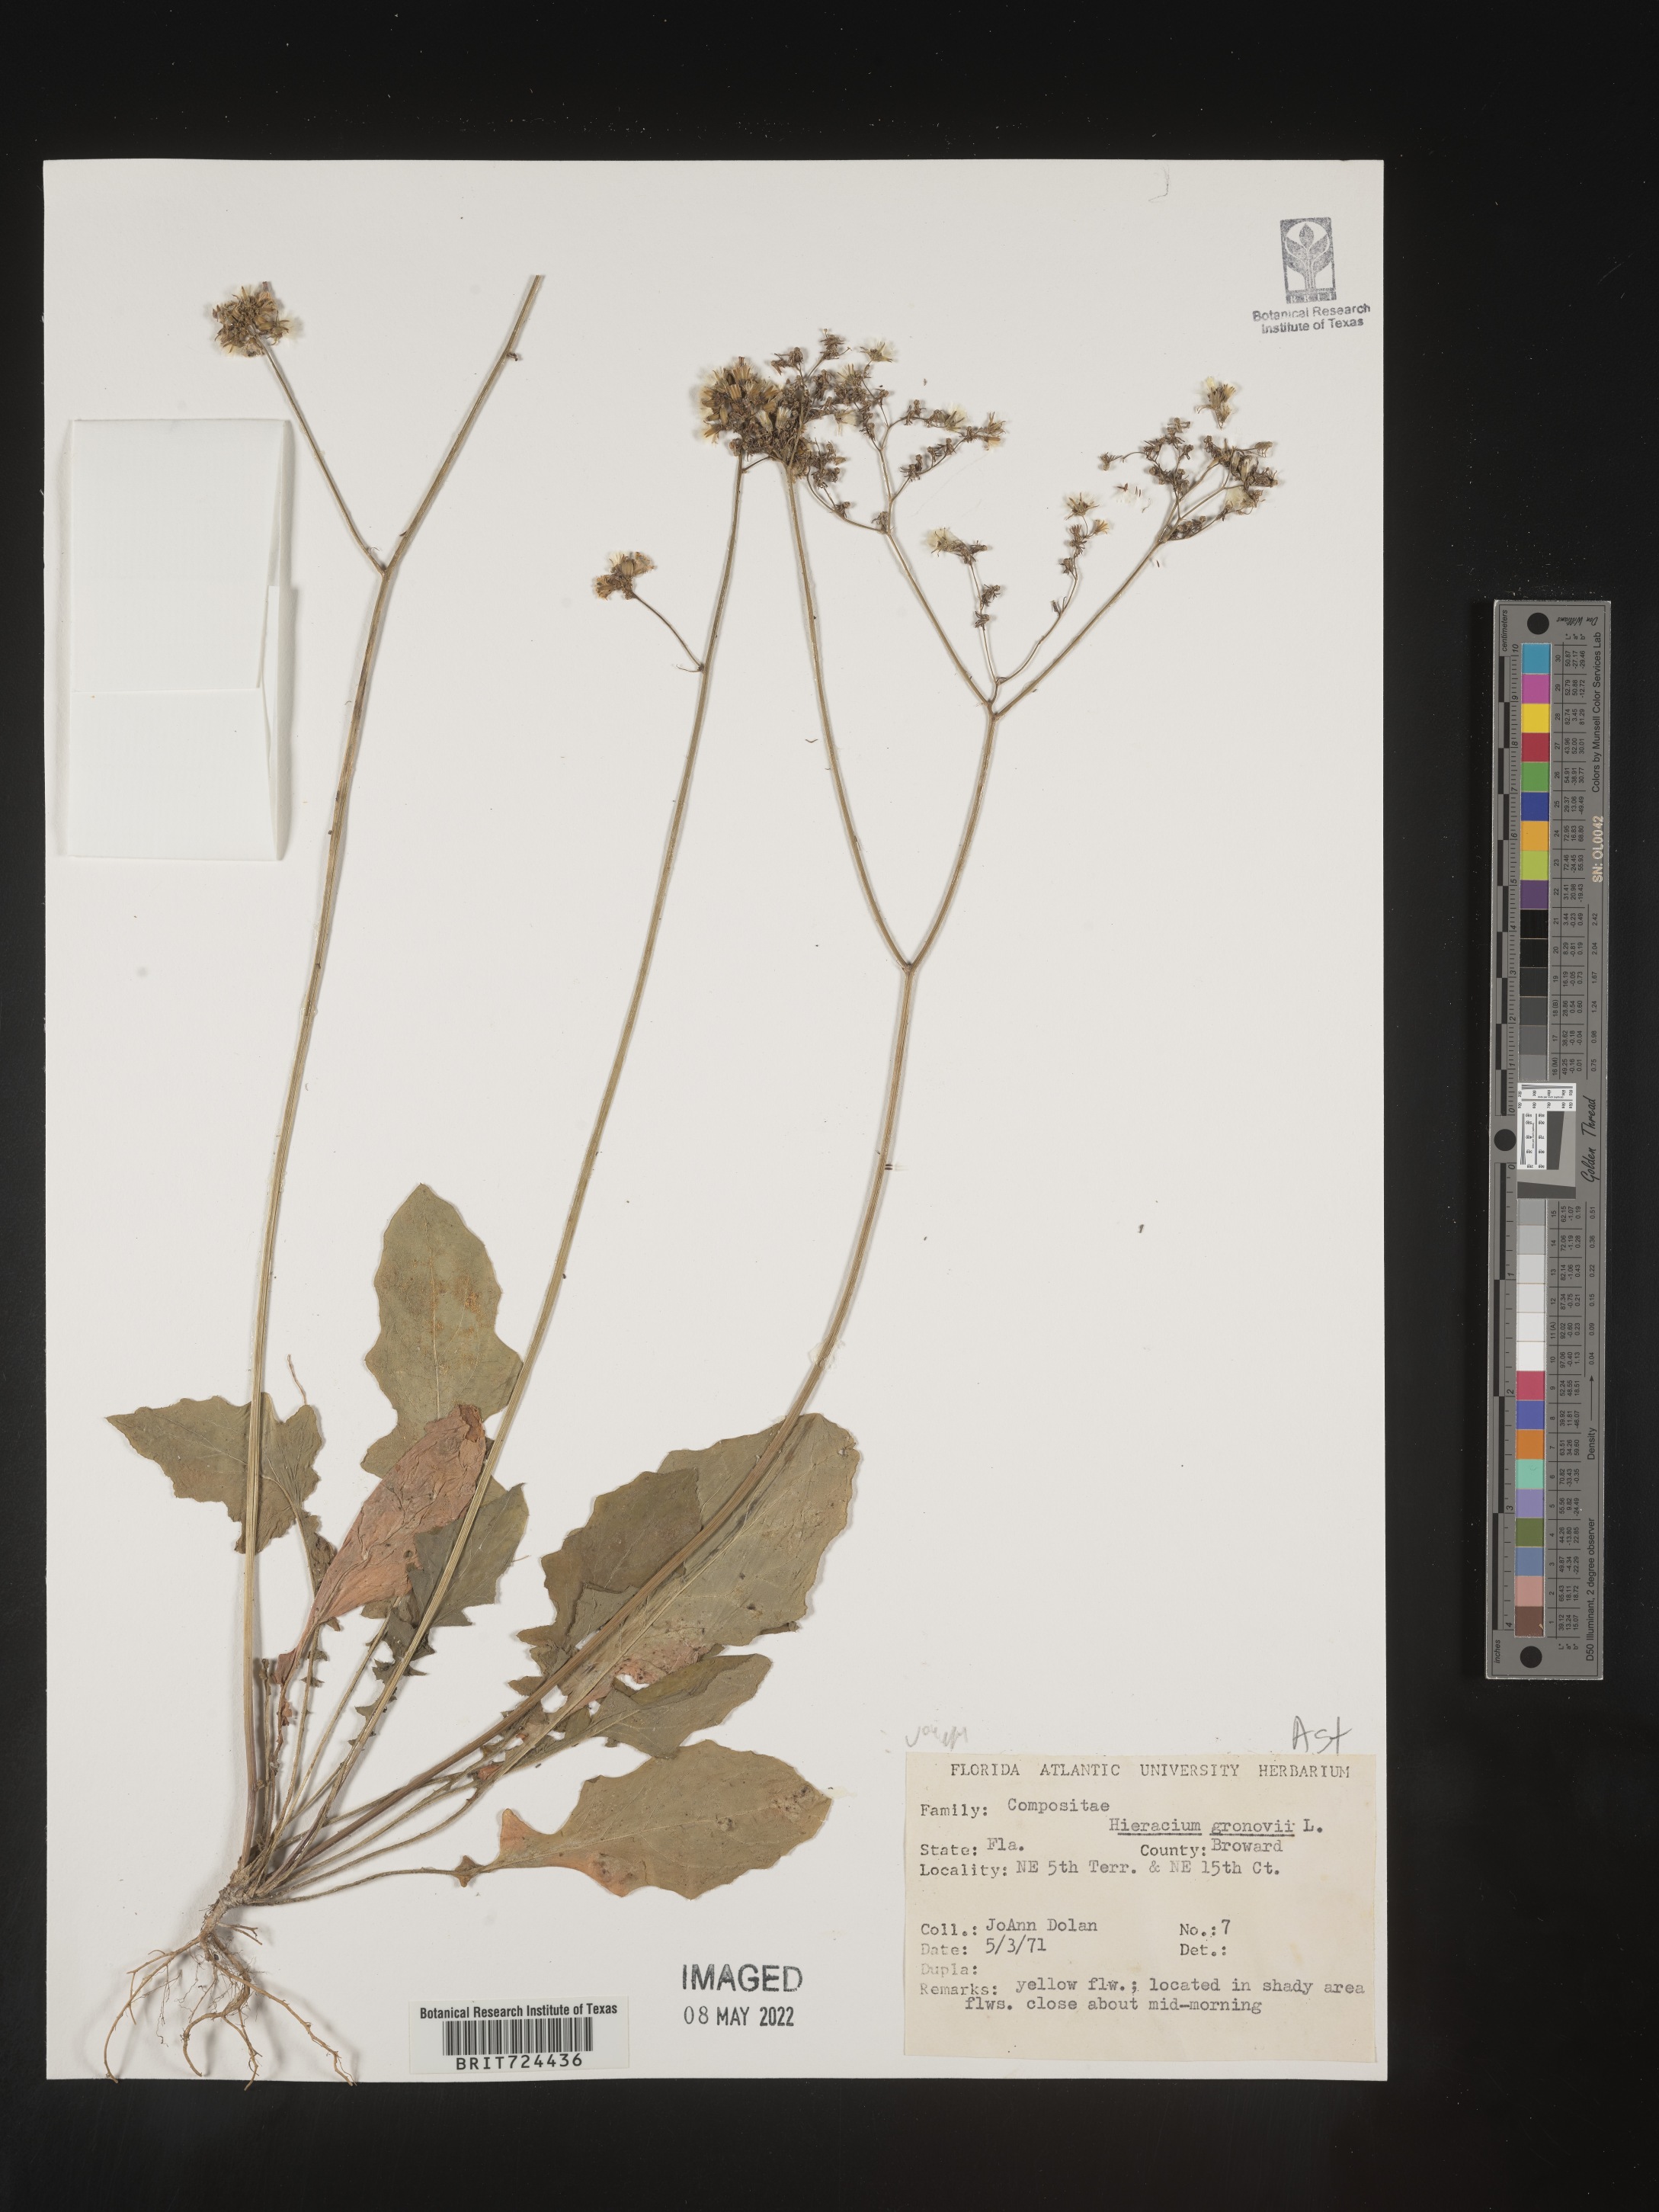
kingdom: Plantae
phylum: Tracheophyta
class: Magnoliopsida
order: Asterales
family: Asteraceae
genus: Hieracium
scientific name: Hieracium gronovii
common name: Beaked hawkweed
